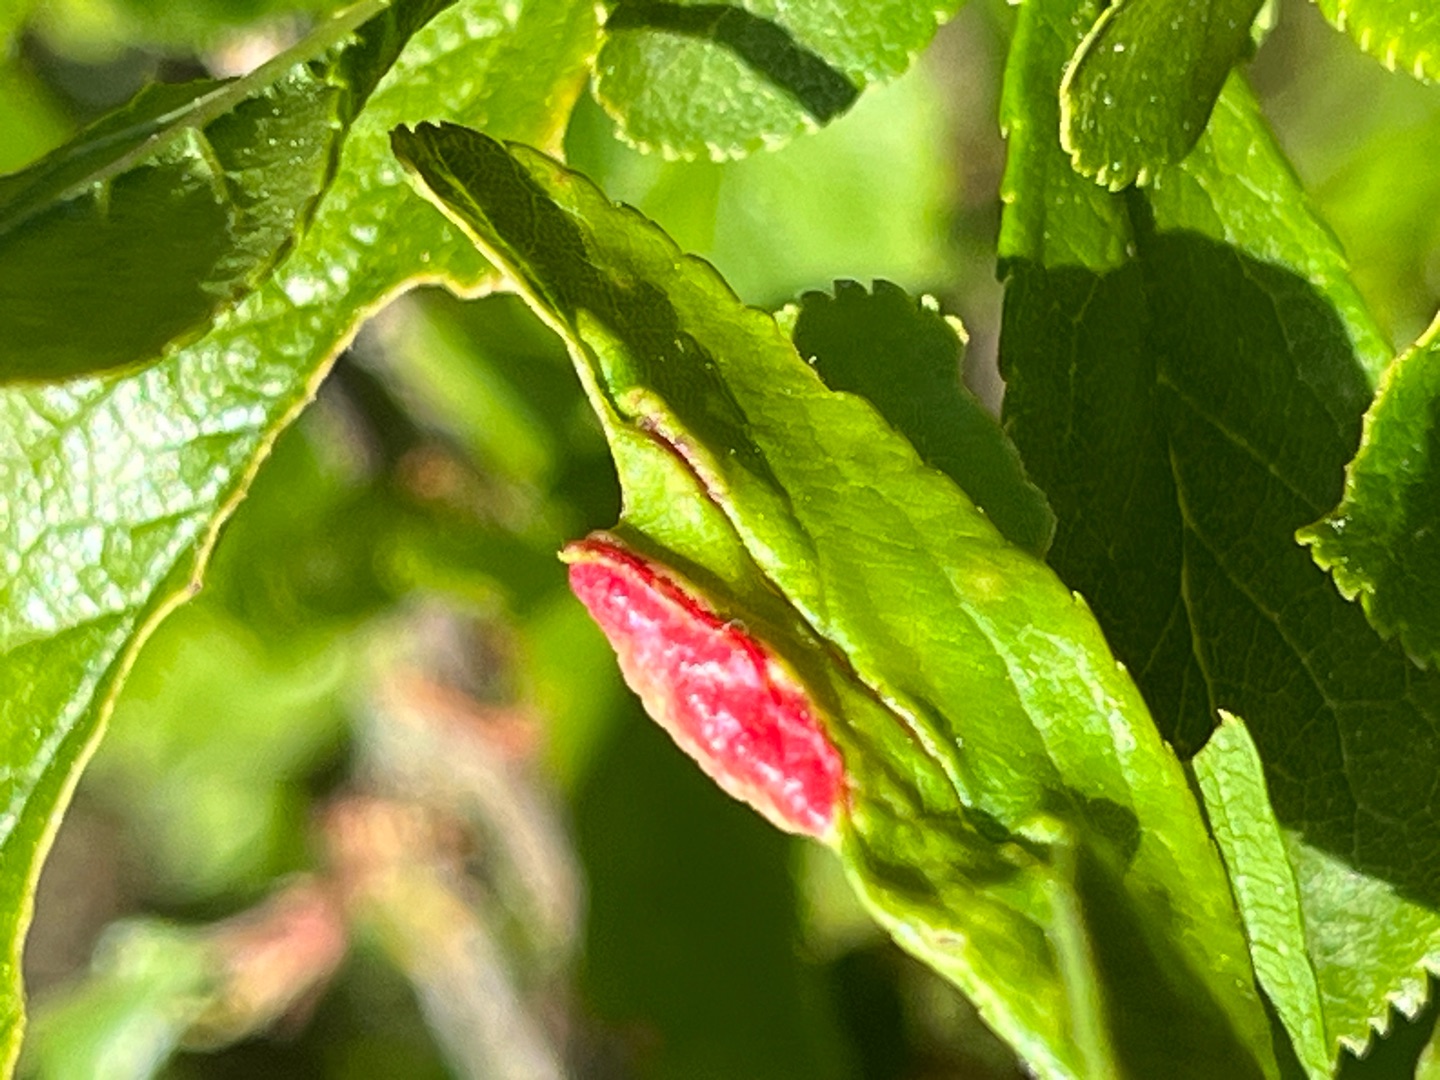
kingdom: Animalia
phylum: Arthropoda
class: Insecta
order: Diptera
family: Cecidomyiidae
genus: Putoniella
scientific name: Putoniella pruni
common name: Slåenvulstgalmyg
